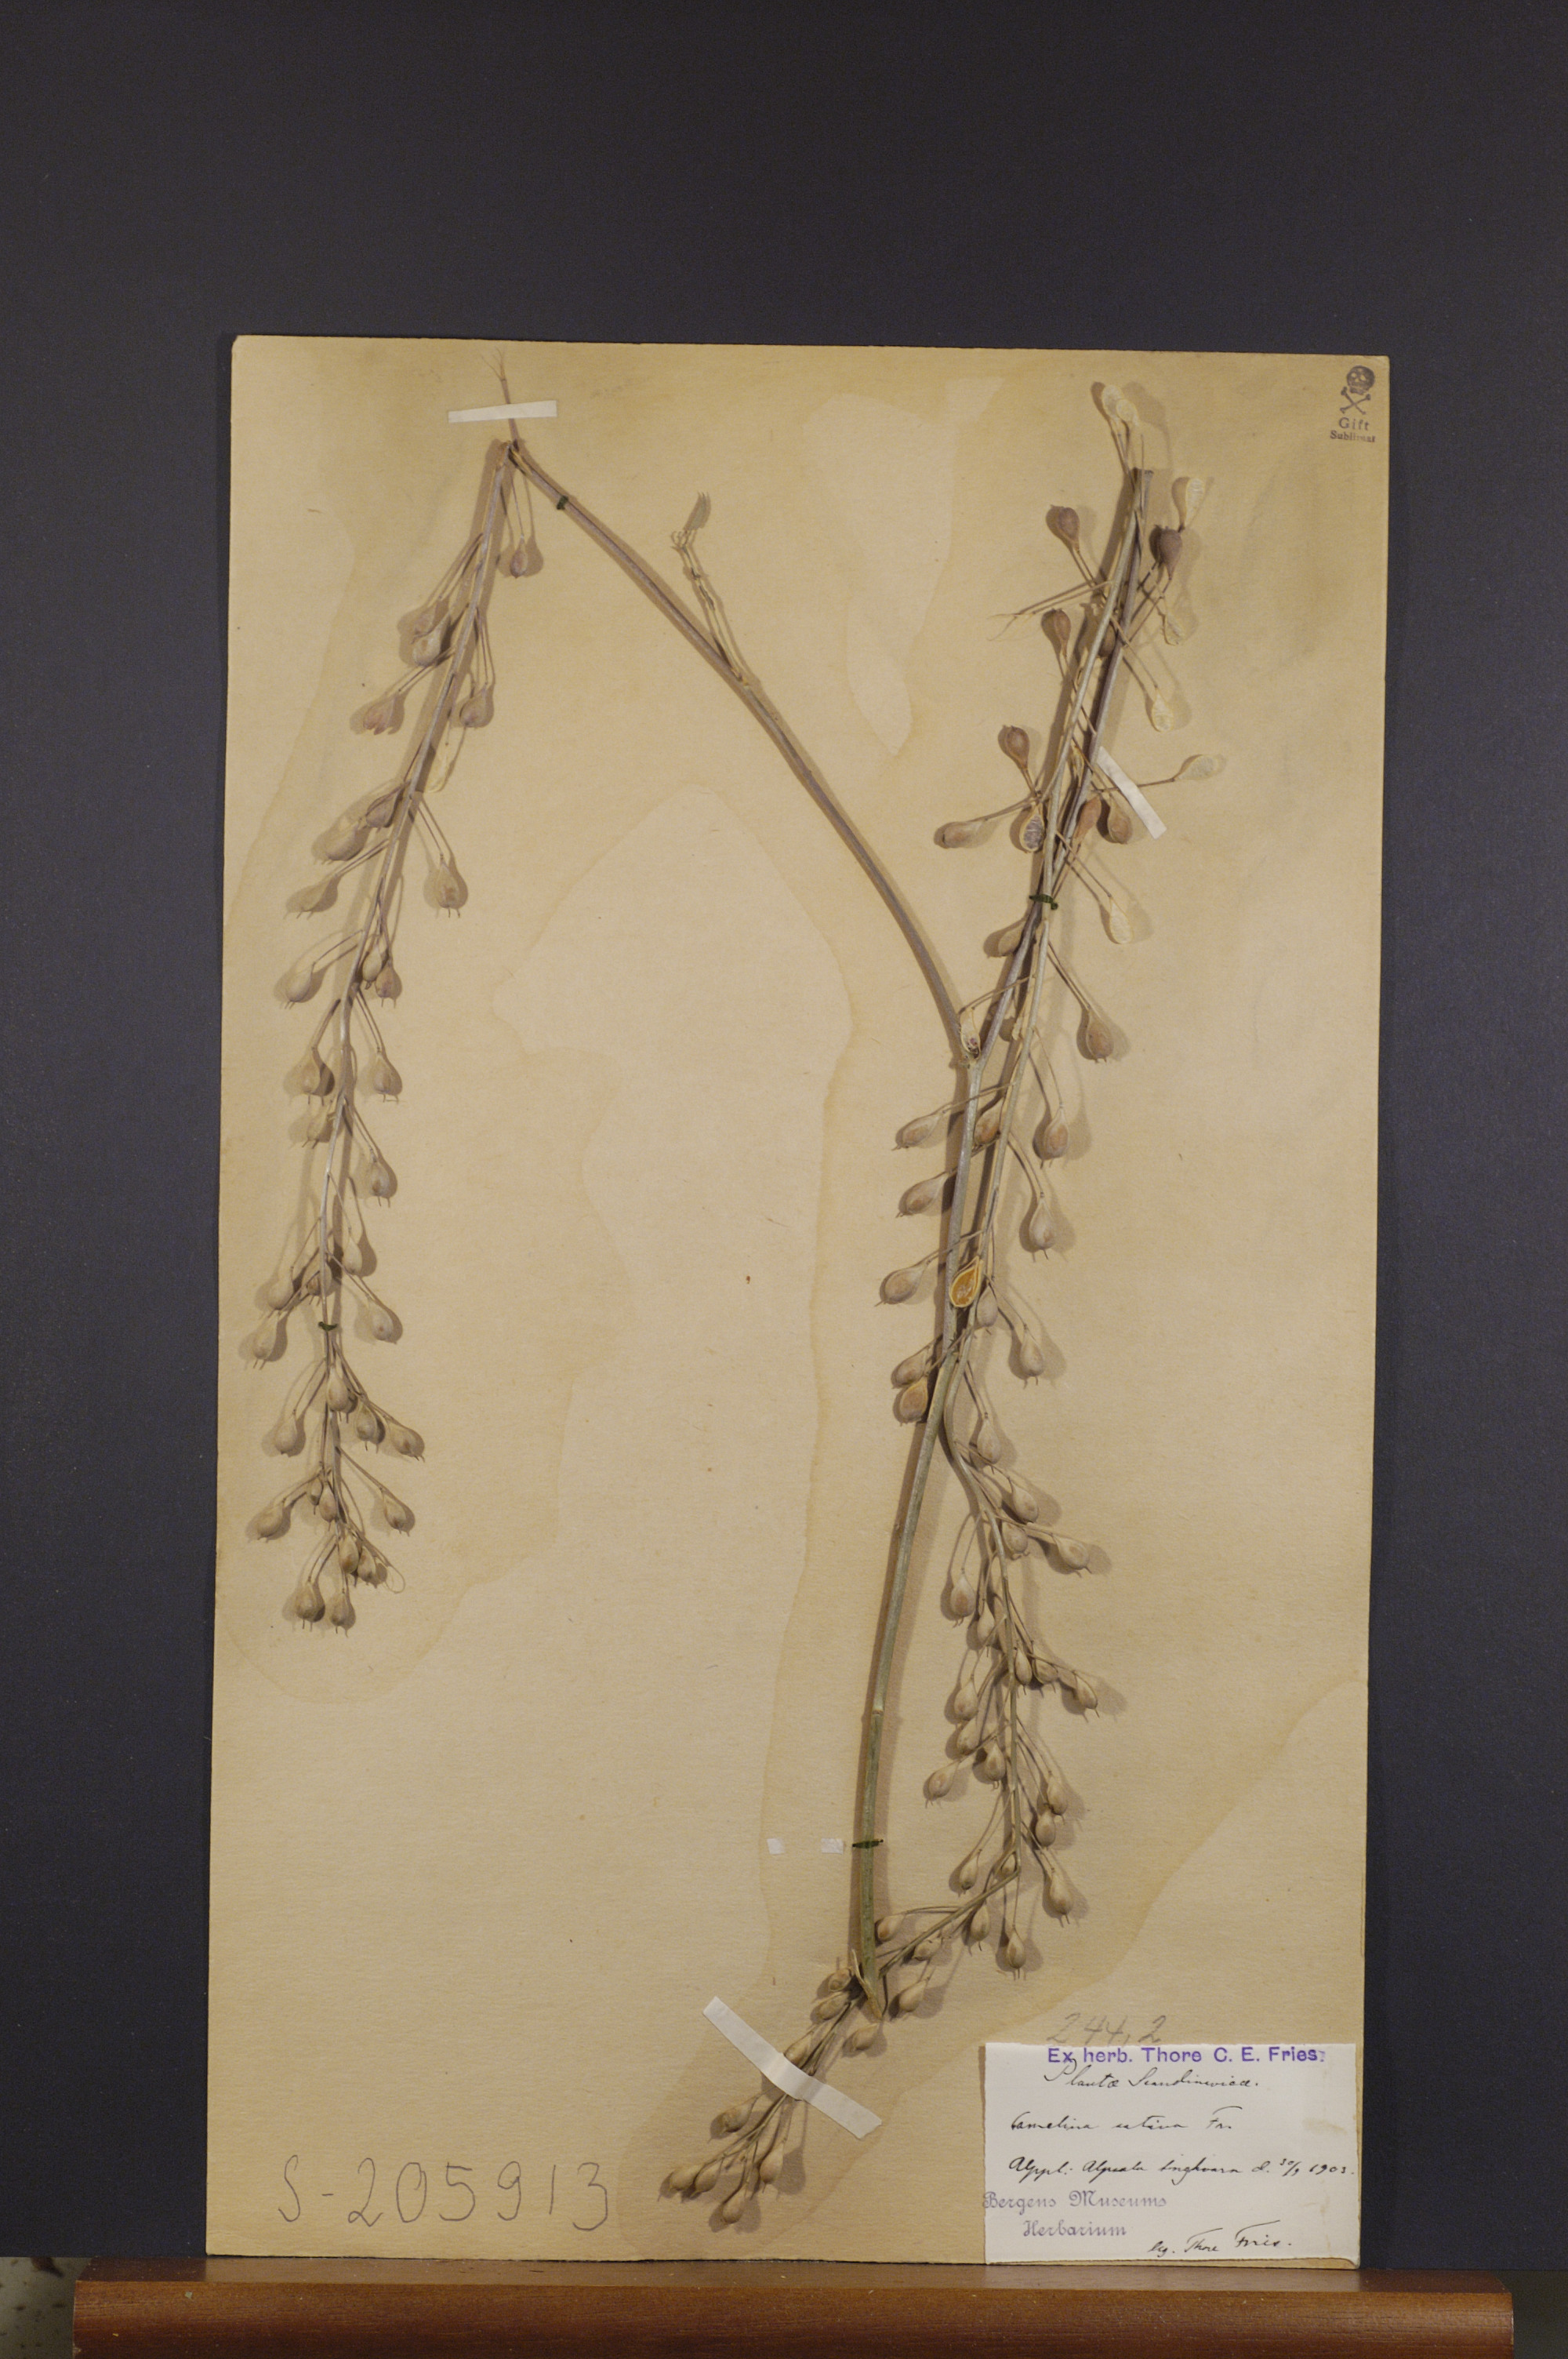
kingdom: Plantae
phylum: Tracheophyta
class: Magnoliopsida
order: Brassicales
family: Brassicaceae
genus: Camelina
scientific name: Camelina sativa
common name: Gold-of-pleasure
